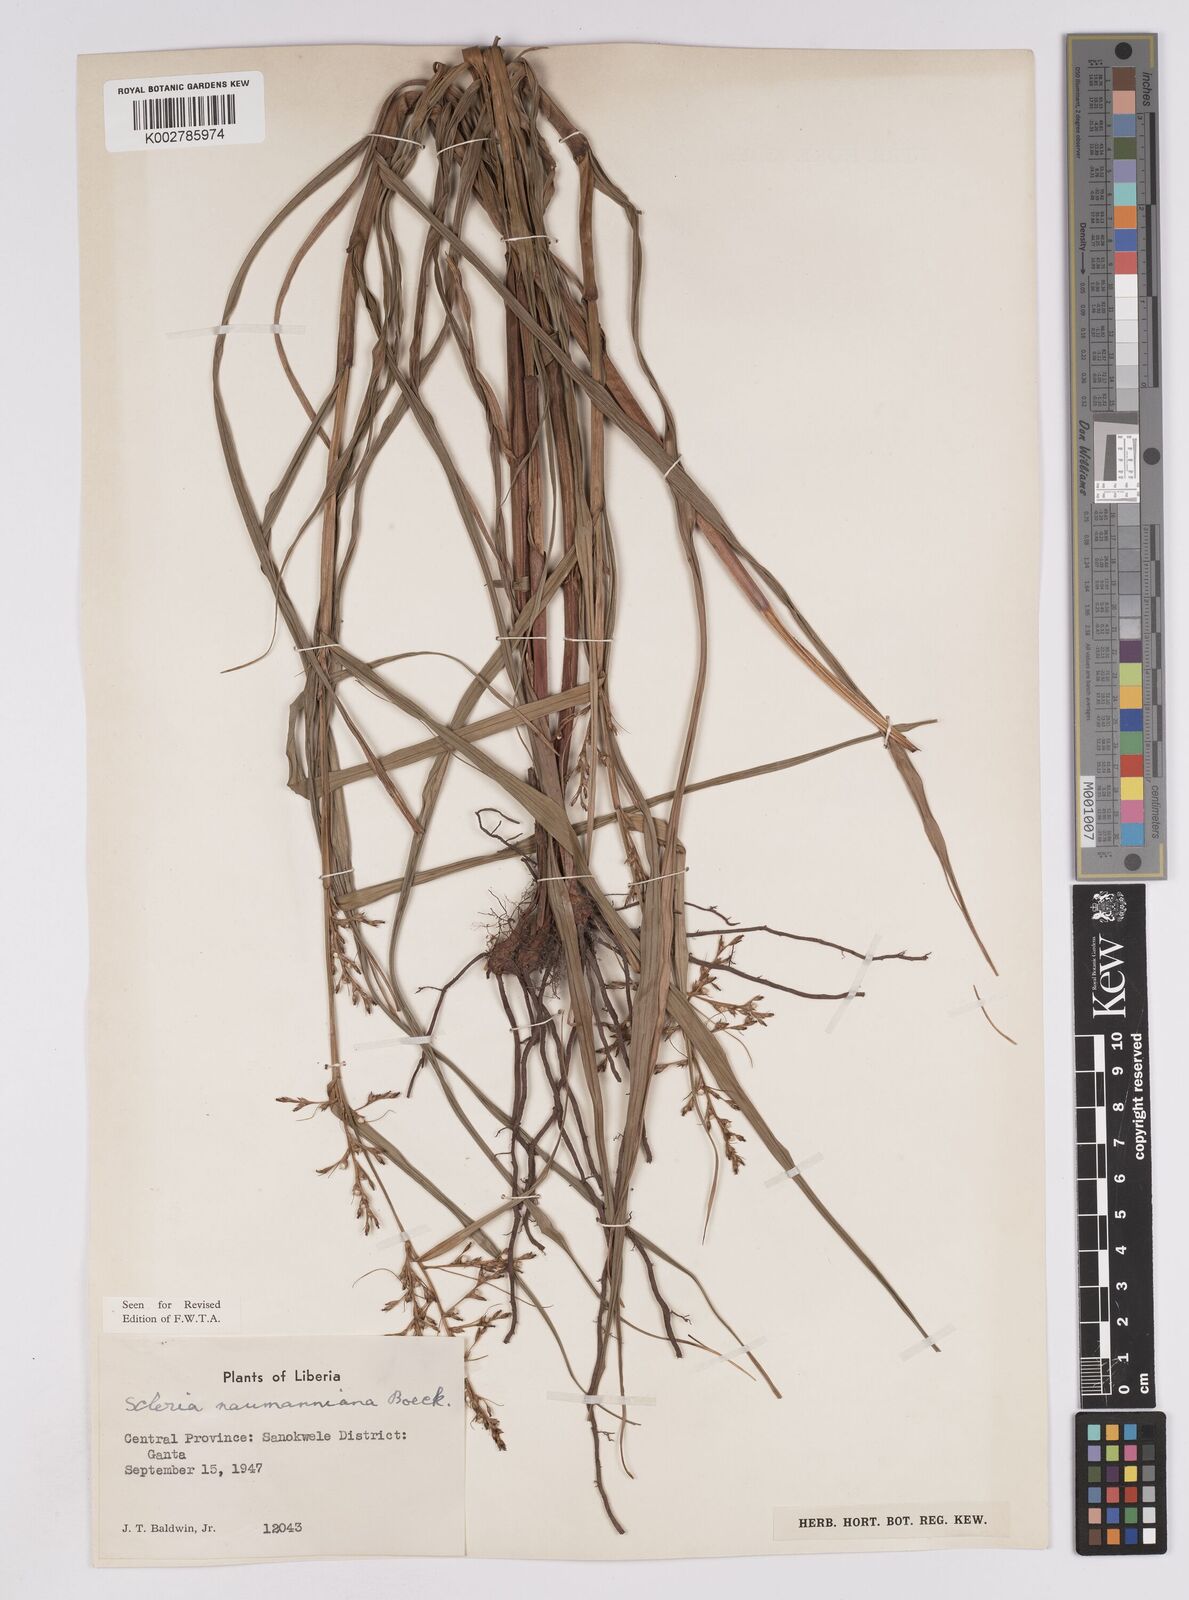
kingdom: Plantae
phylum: Tracheophyta
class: Liliopsida
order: Poales
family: Cyperaceae
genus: Scleria
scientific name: Scleria naumanniana
